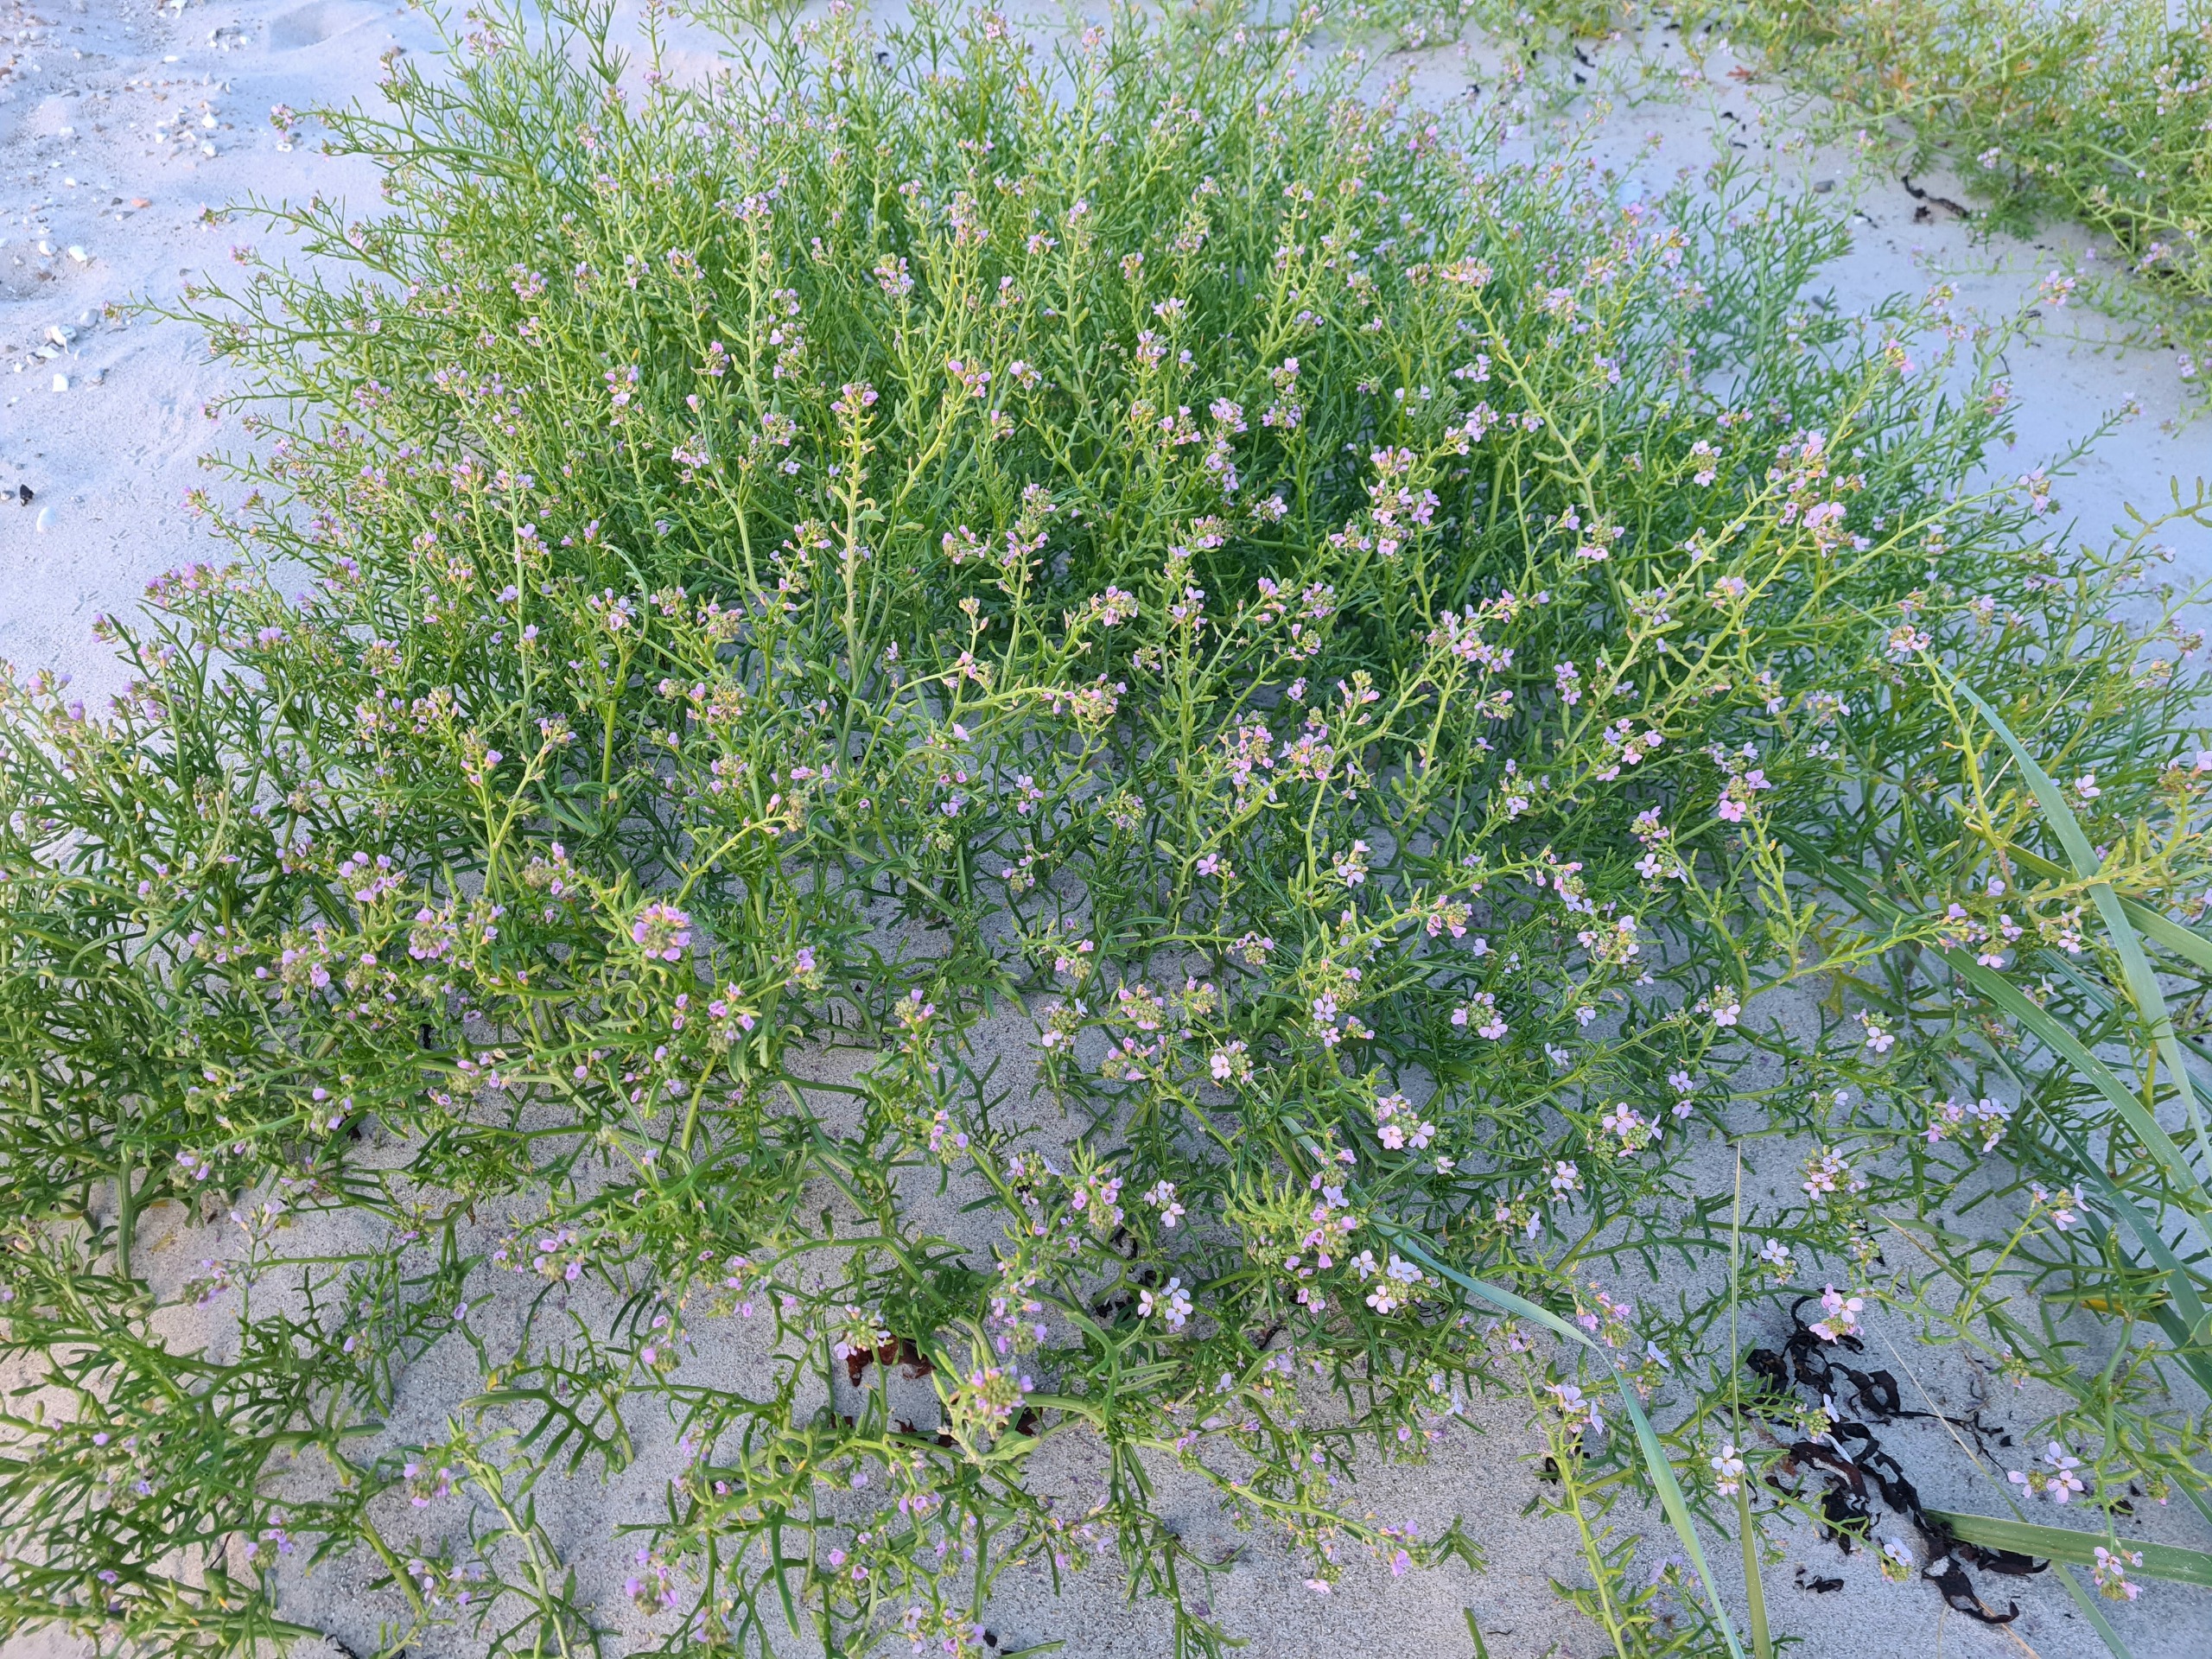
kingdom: Plantae
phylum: Tracheophyta
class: Magnoliopsida
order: Brassicales
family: Brassicaceae
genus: Cakile
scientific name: Cakile maritima
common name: Østersø-strandsennep
